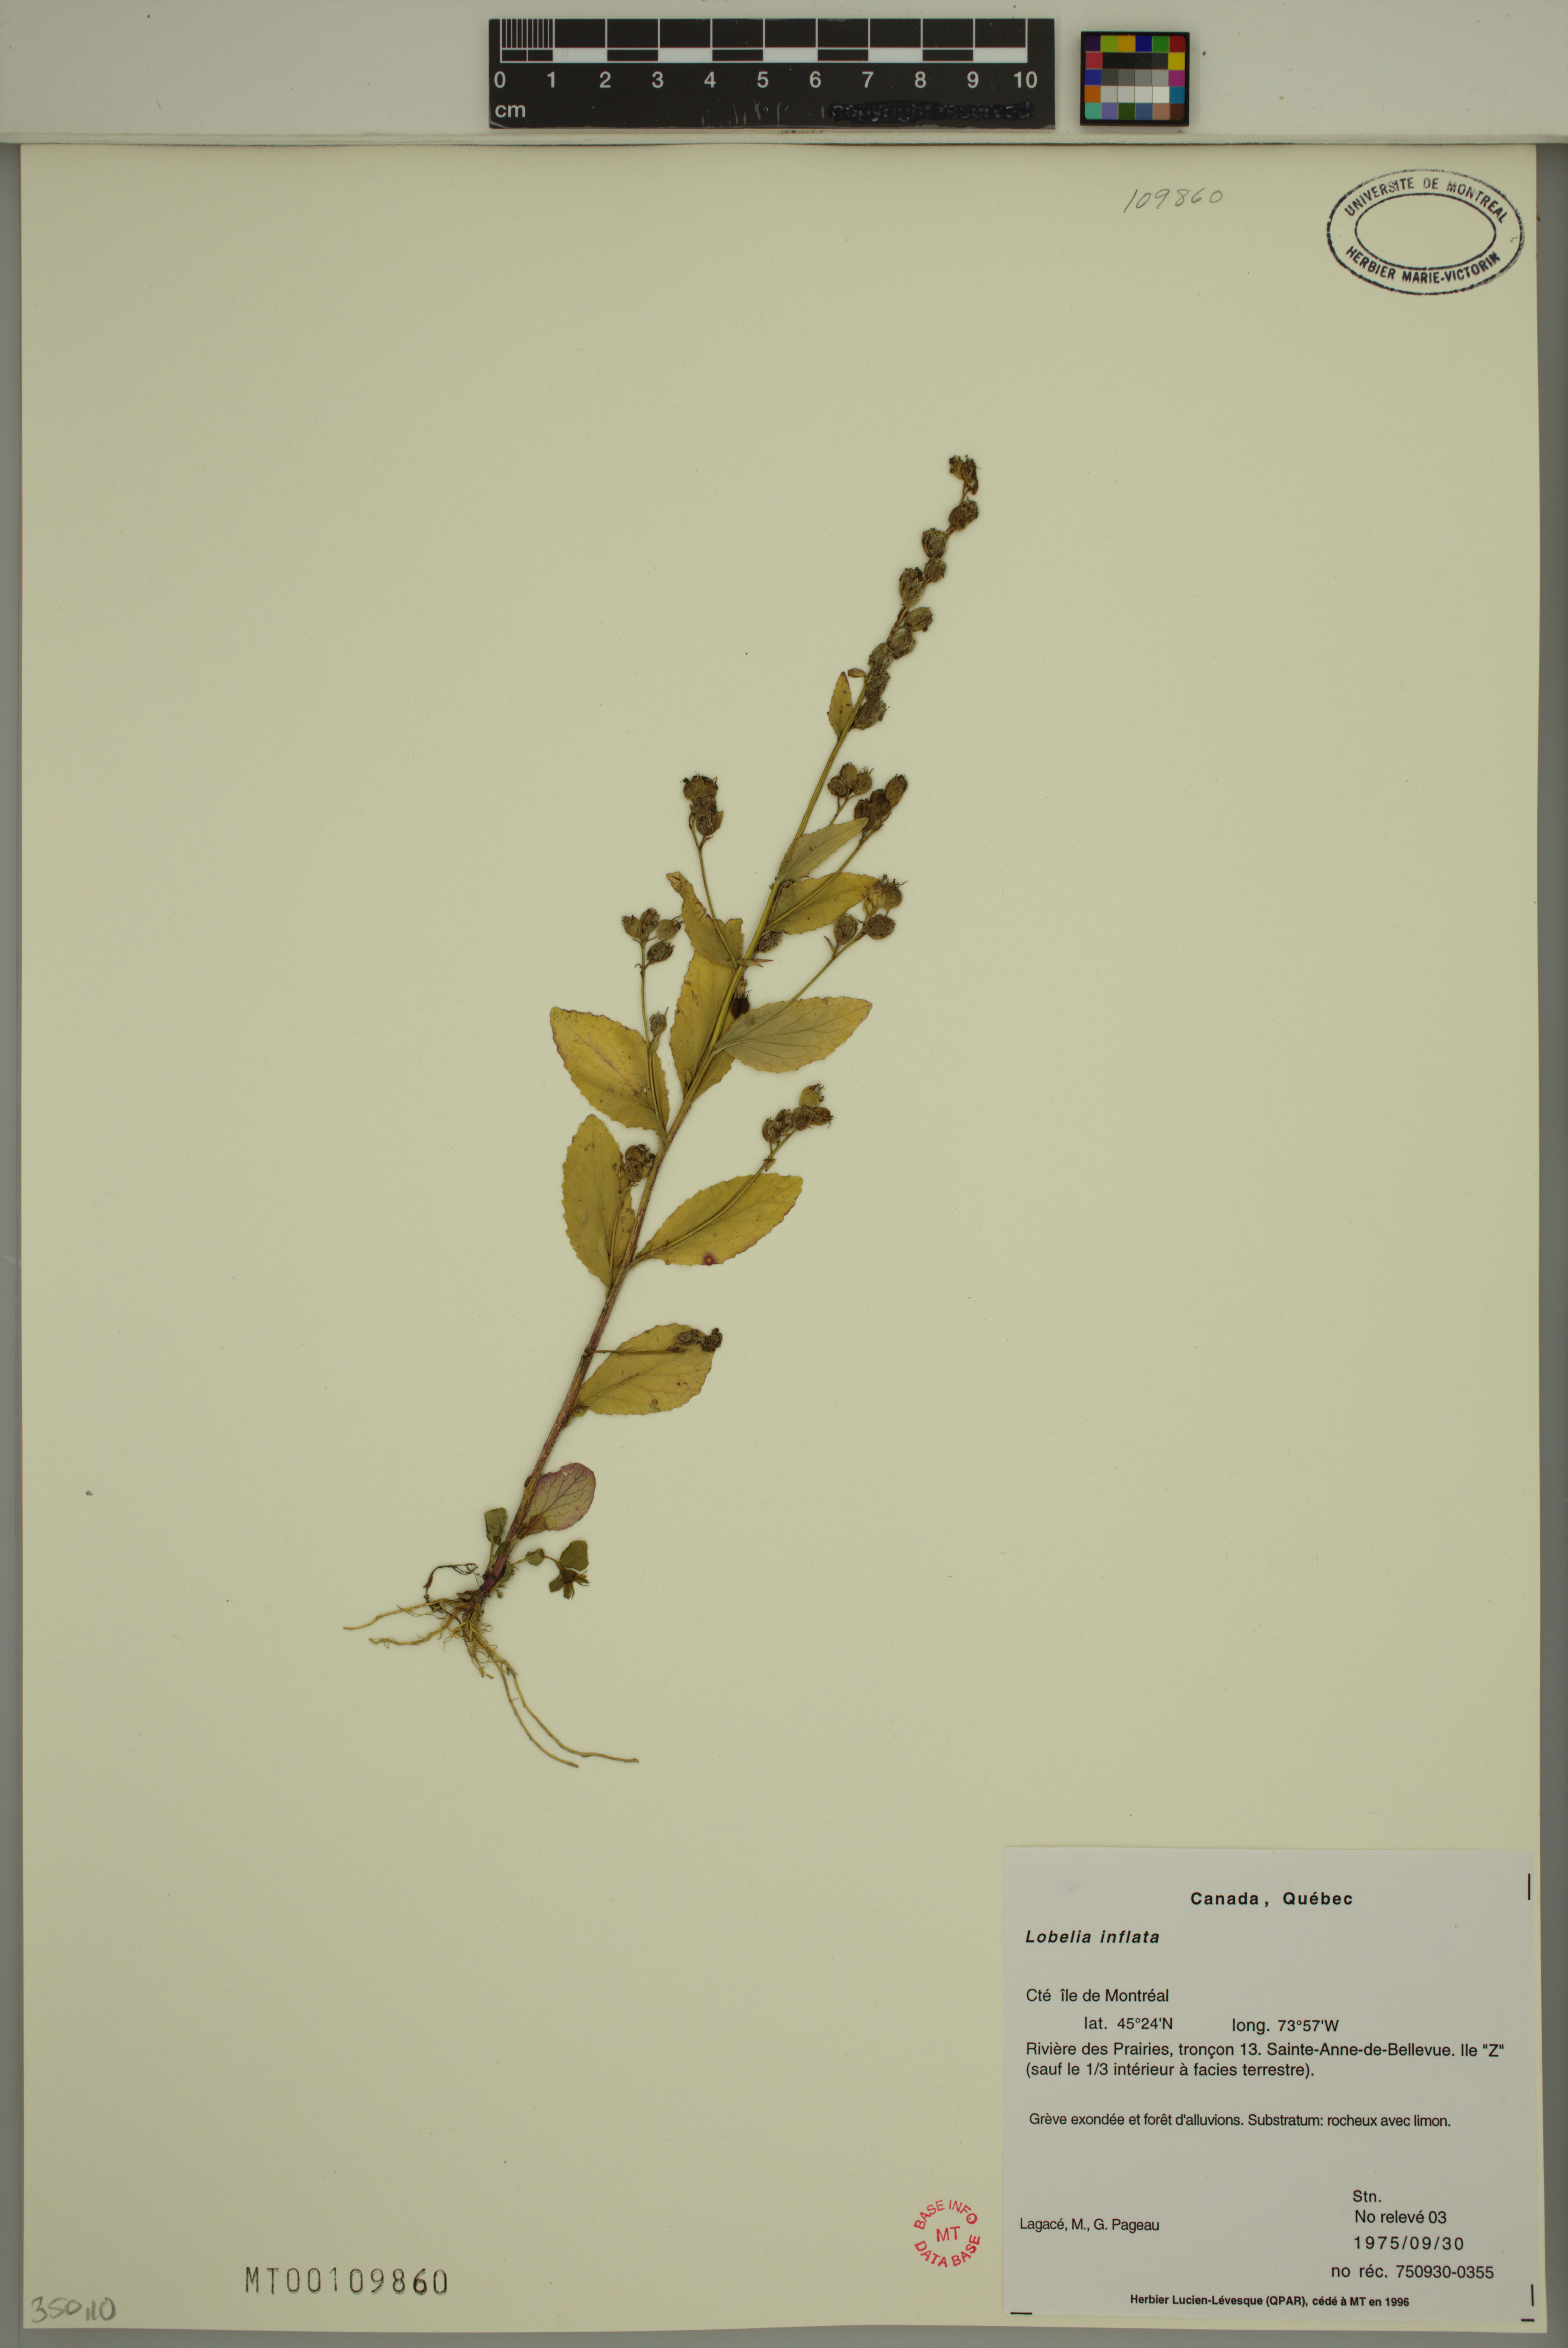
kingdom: Plantae
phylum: Tracheophyta
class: Magnoliopsida
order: Asterales
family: Campanulaceae
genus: Lobelia
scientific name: Lobelia inflata
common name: Indian tobacco
